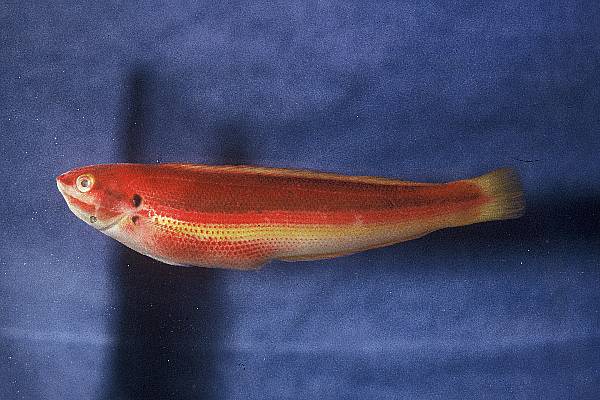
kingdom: Animalia
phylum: Chordata
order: Perciformes
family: Labridae
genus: Coris
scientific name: Coris julis
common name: Rainbow wrasse
